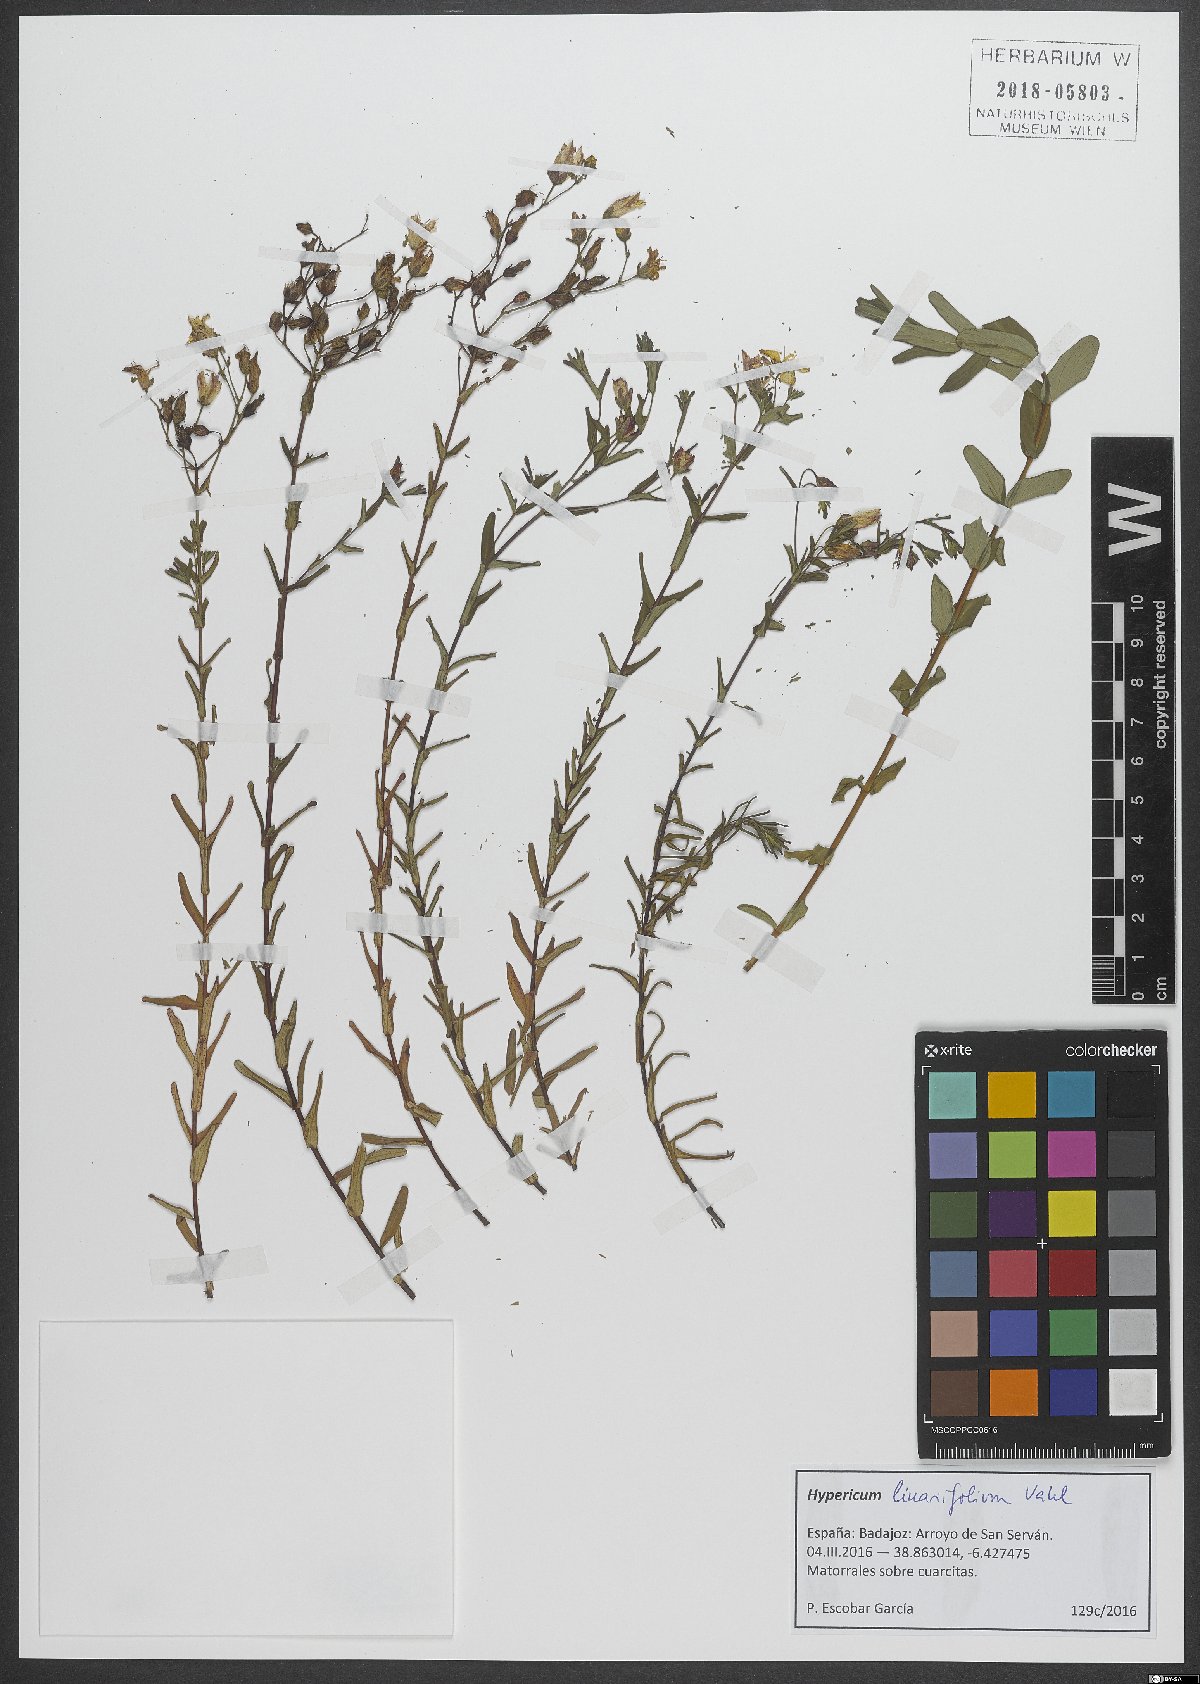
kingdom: Plantae
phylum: Tracheophyta
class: Magnoliopsida
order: Malpighiales
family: Hypericaceae
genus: Hypericum
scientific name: Hypericum linariifolium
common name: Toadflax-leaved st. john's-wort
